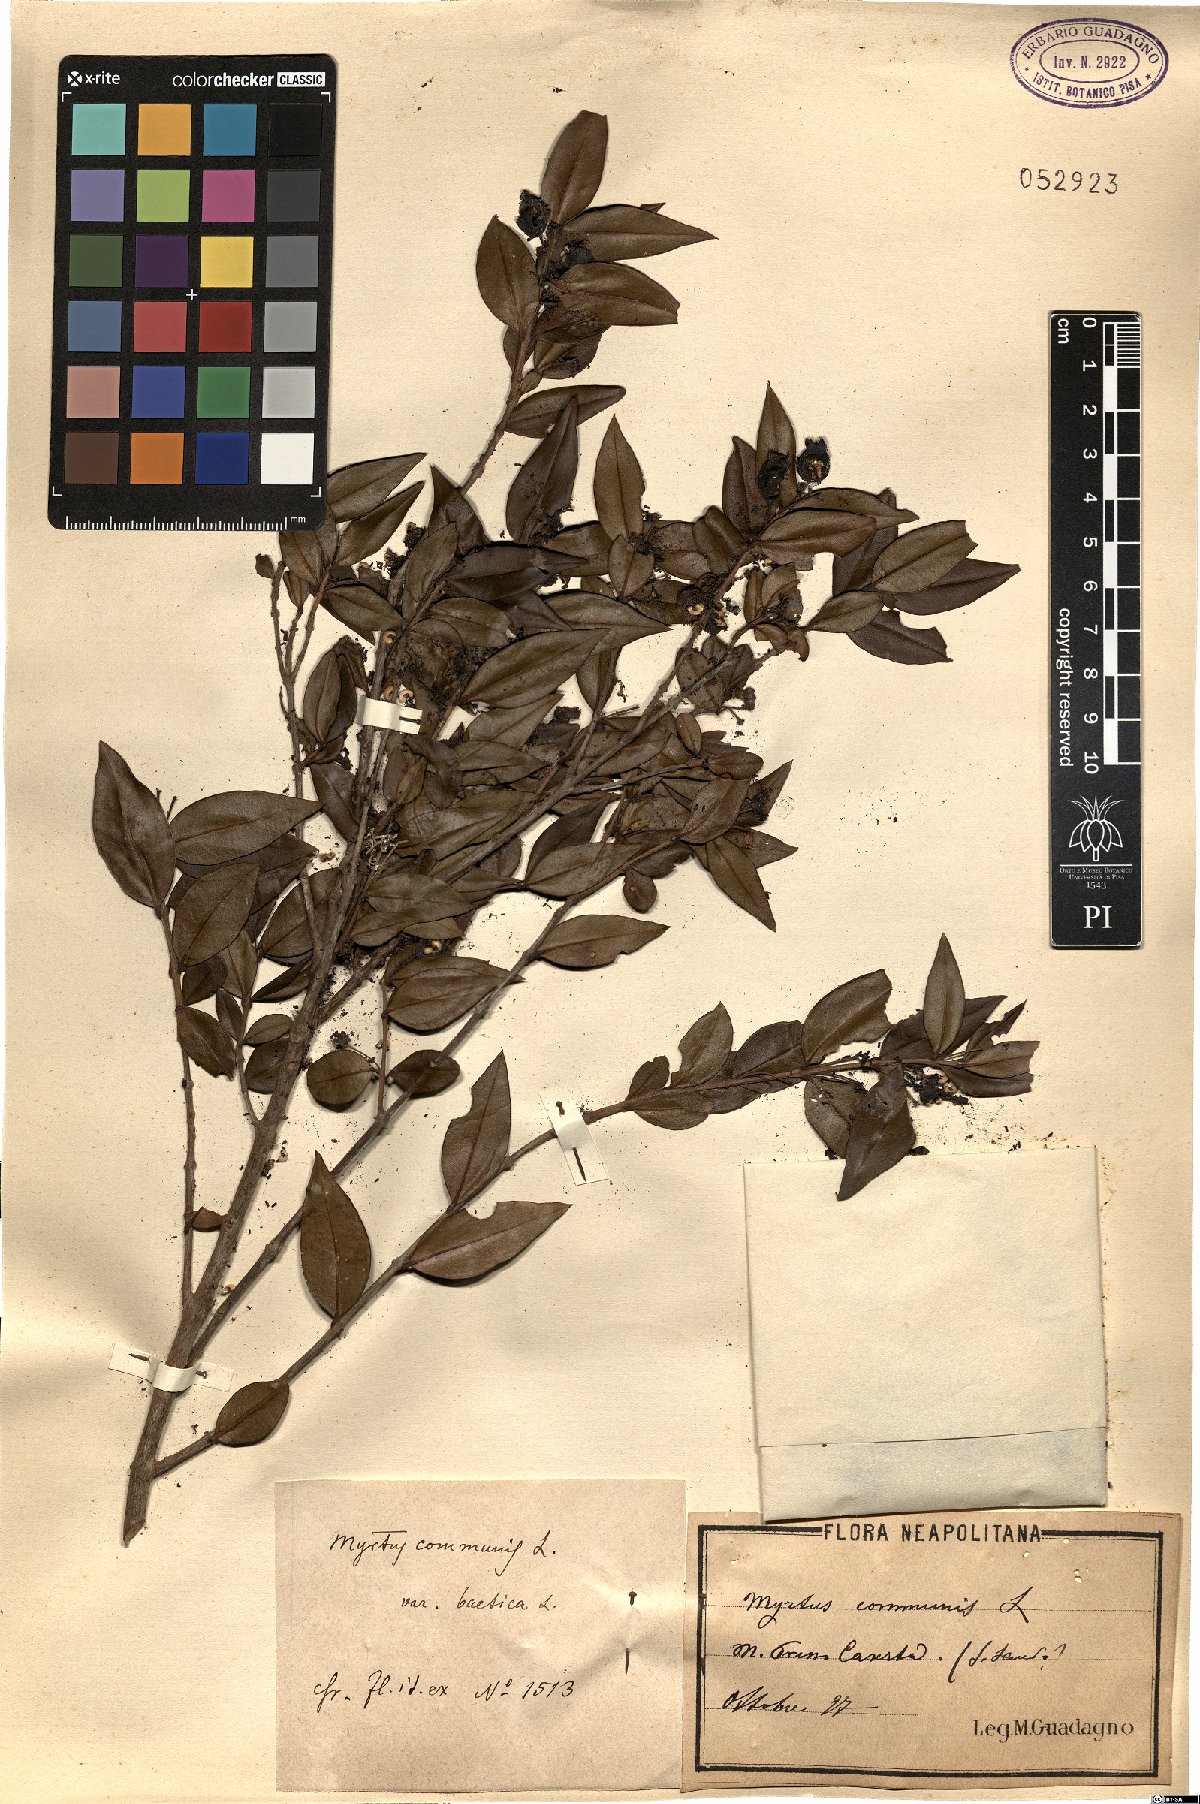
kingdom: Plantae
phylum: Tracheophyta
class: Magnoliopsida
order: Myrtales
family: Myrtaceae
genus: Myrtus
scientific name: Myrtus communis
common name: Myrtle
